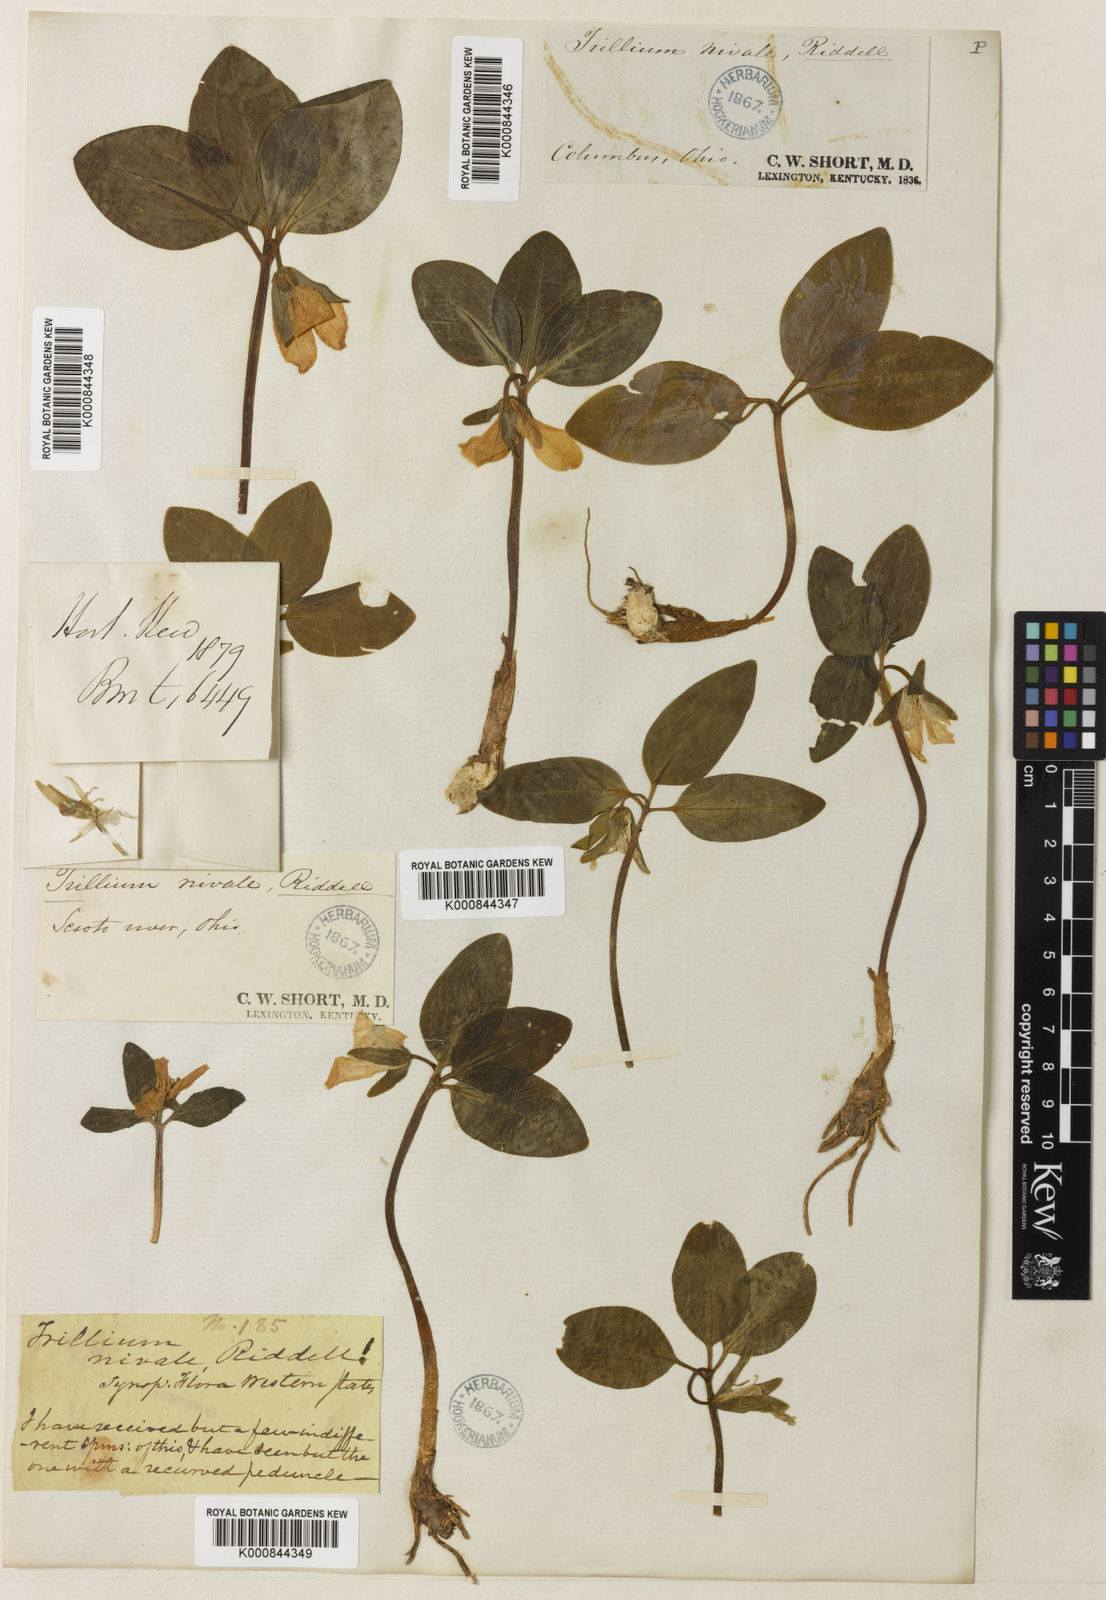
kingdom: Plantae
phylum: Tracheophyta
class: Liliopsida
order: Liliales
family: Melanthiaceae
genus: Trillium
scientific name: Trillium nivale
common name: Dwarf white trillium
